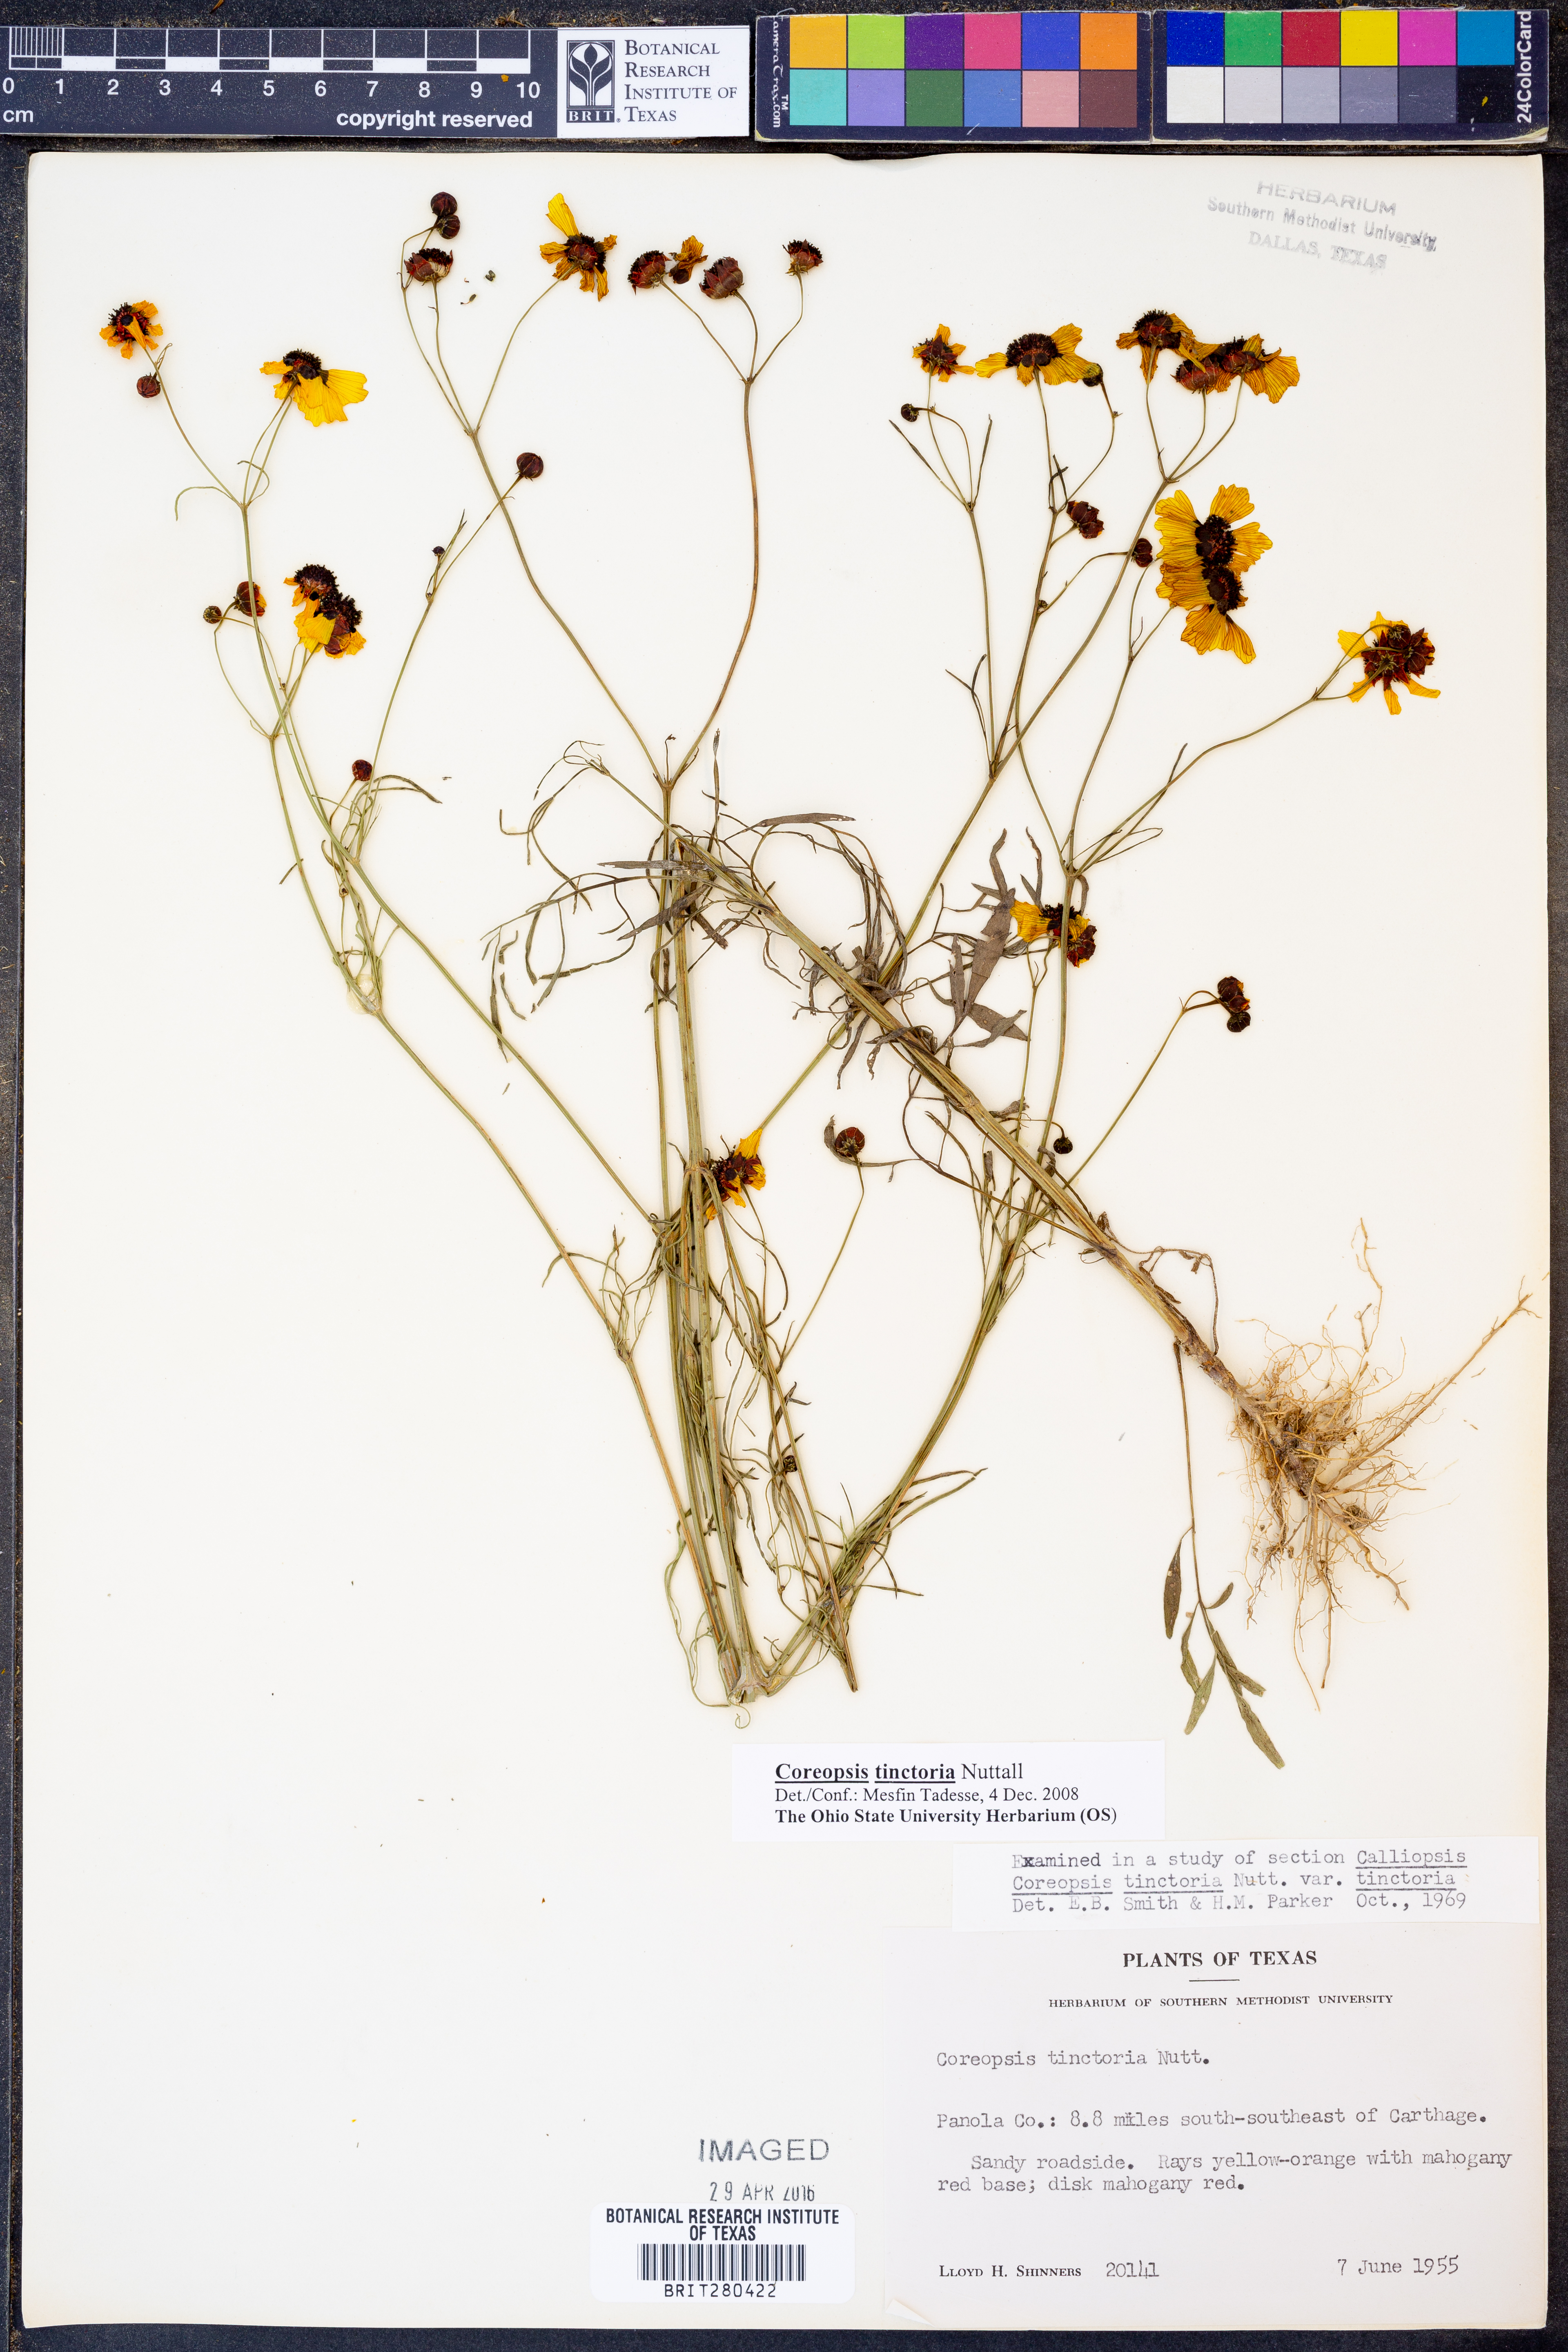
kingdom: Plantae
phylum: Tracheophyta
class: Magnoliopsida
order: Asterales
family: Asteraceae
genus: Coreopsis
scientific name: Coreopsis tinctoria
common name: Garden tickseed
